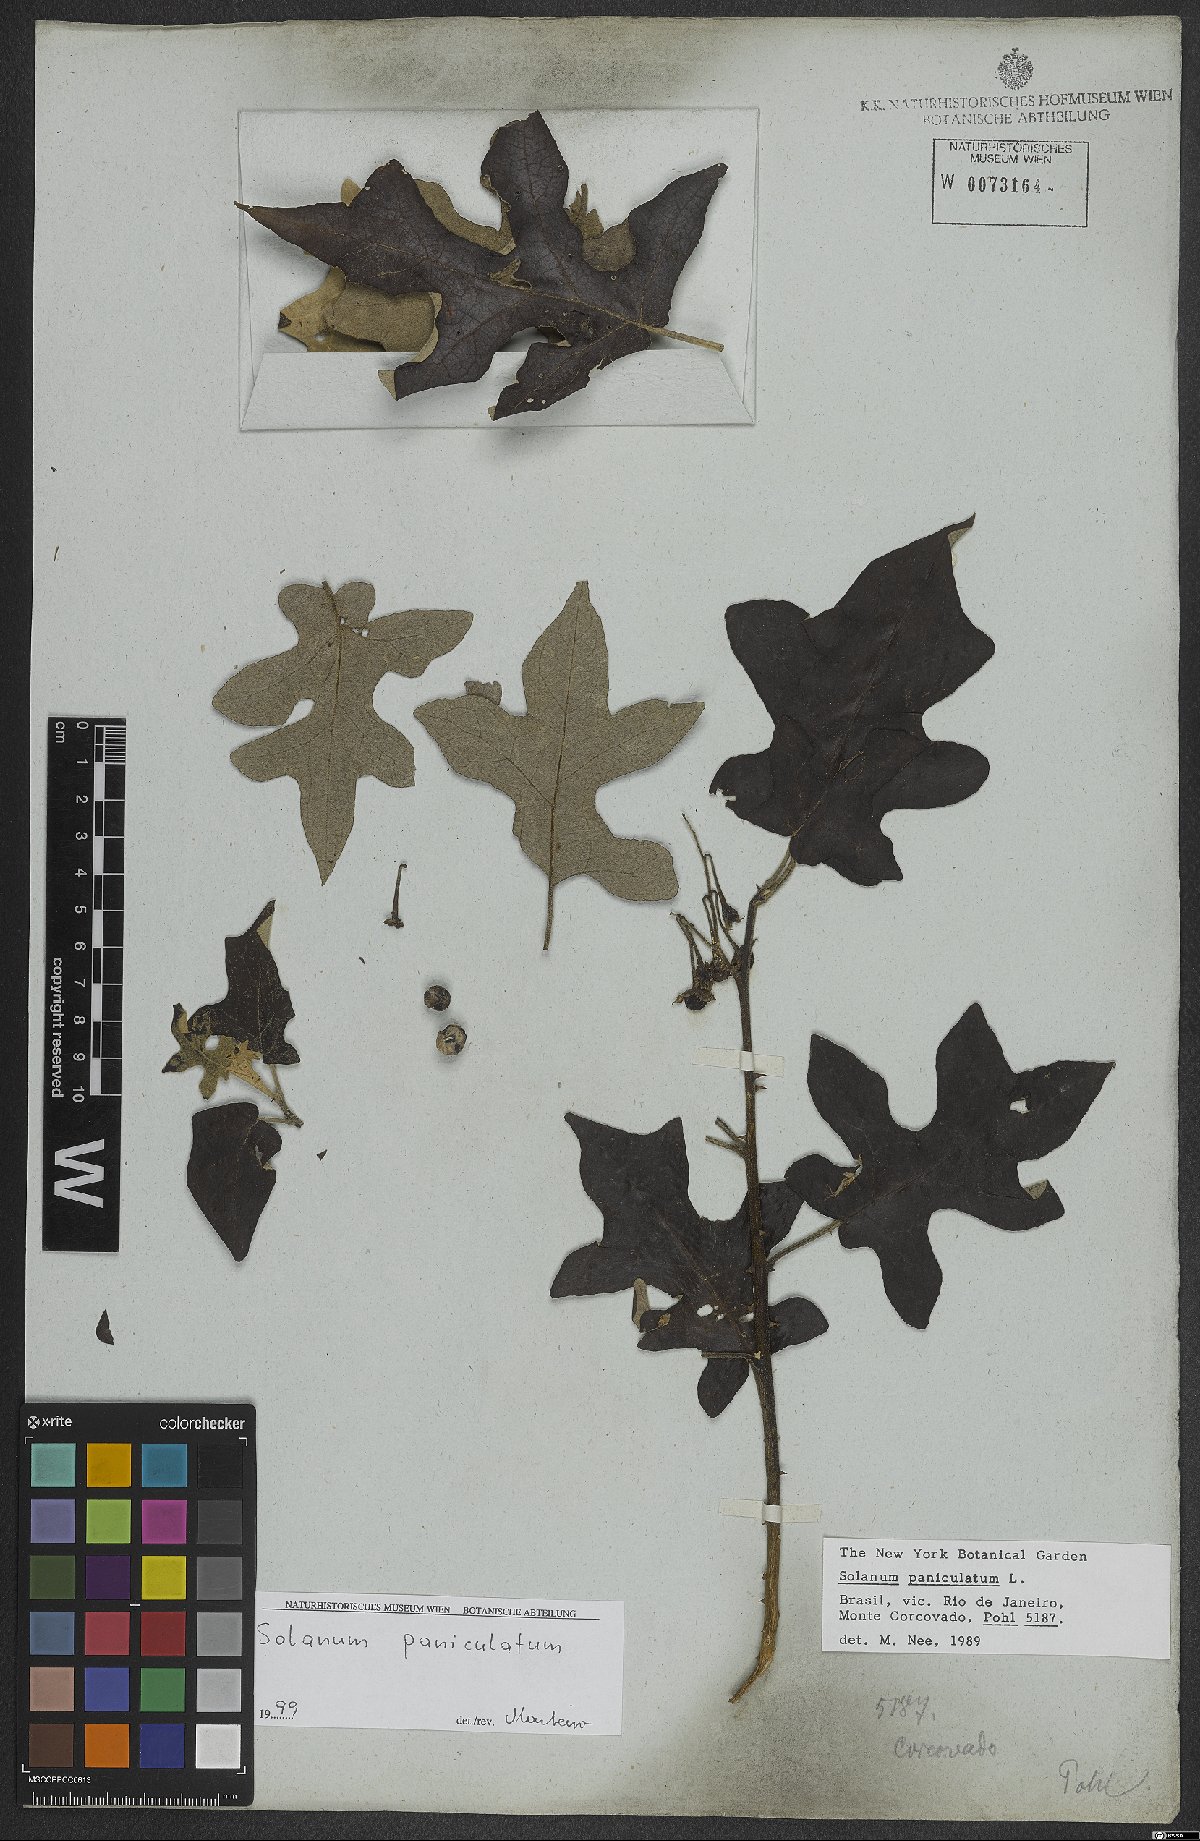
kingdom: Plantae
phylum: Tracheophyta
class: Magnoliopsida
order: Solanales
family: Solanaceae
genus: Solanum
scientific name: Solanum paniculatum
